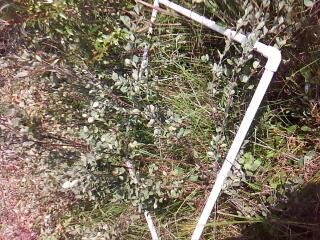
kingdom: Plantae
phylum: Tracheophyta
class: Magnoliopsida
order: Fagales
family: Betulaceae
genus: Betula
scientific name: Betula pumila
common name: Bog birch
